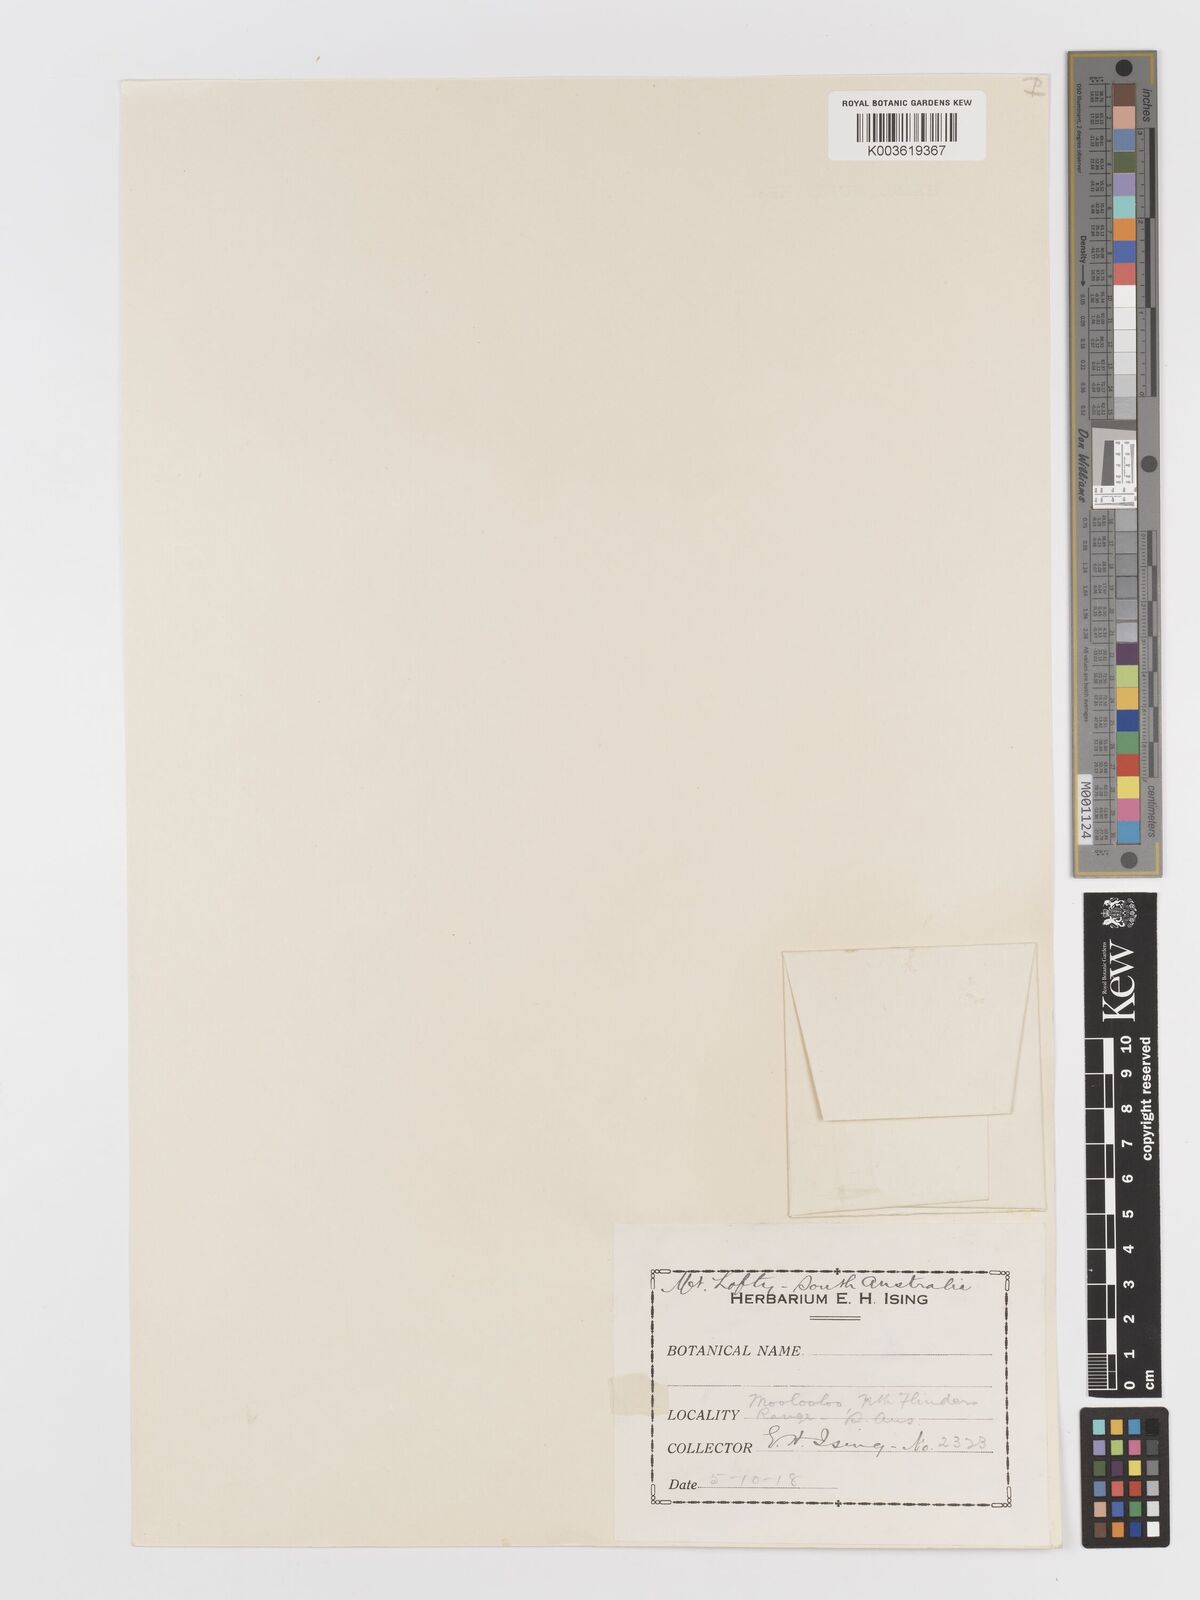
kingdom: Plantae
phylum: Tracheophyta
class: Liliopsida
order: Poales
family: Poaceae
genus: Rostraria
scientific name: Rostraria pumila
